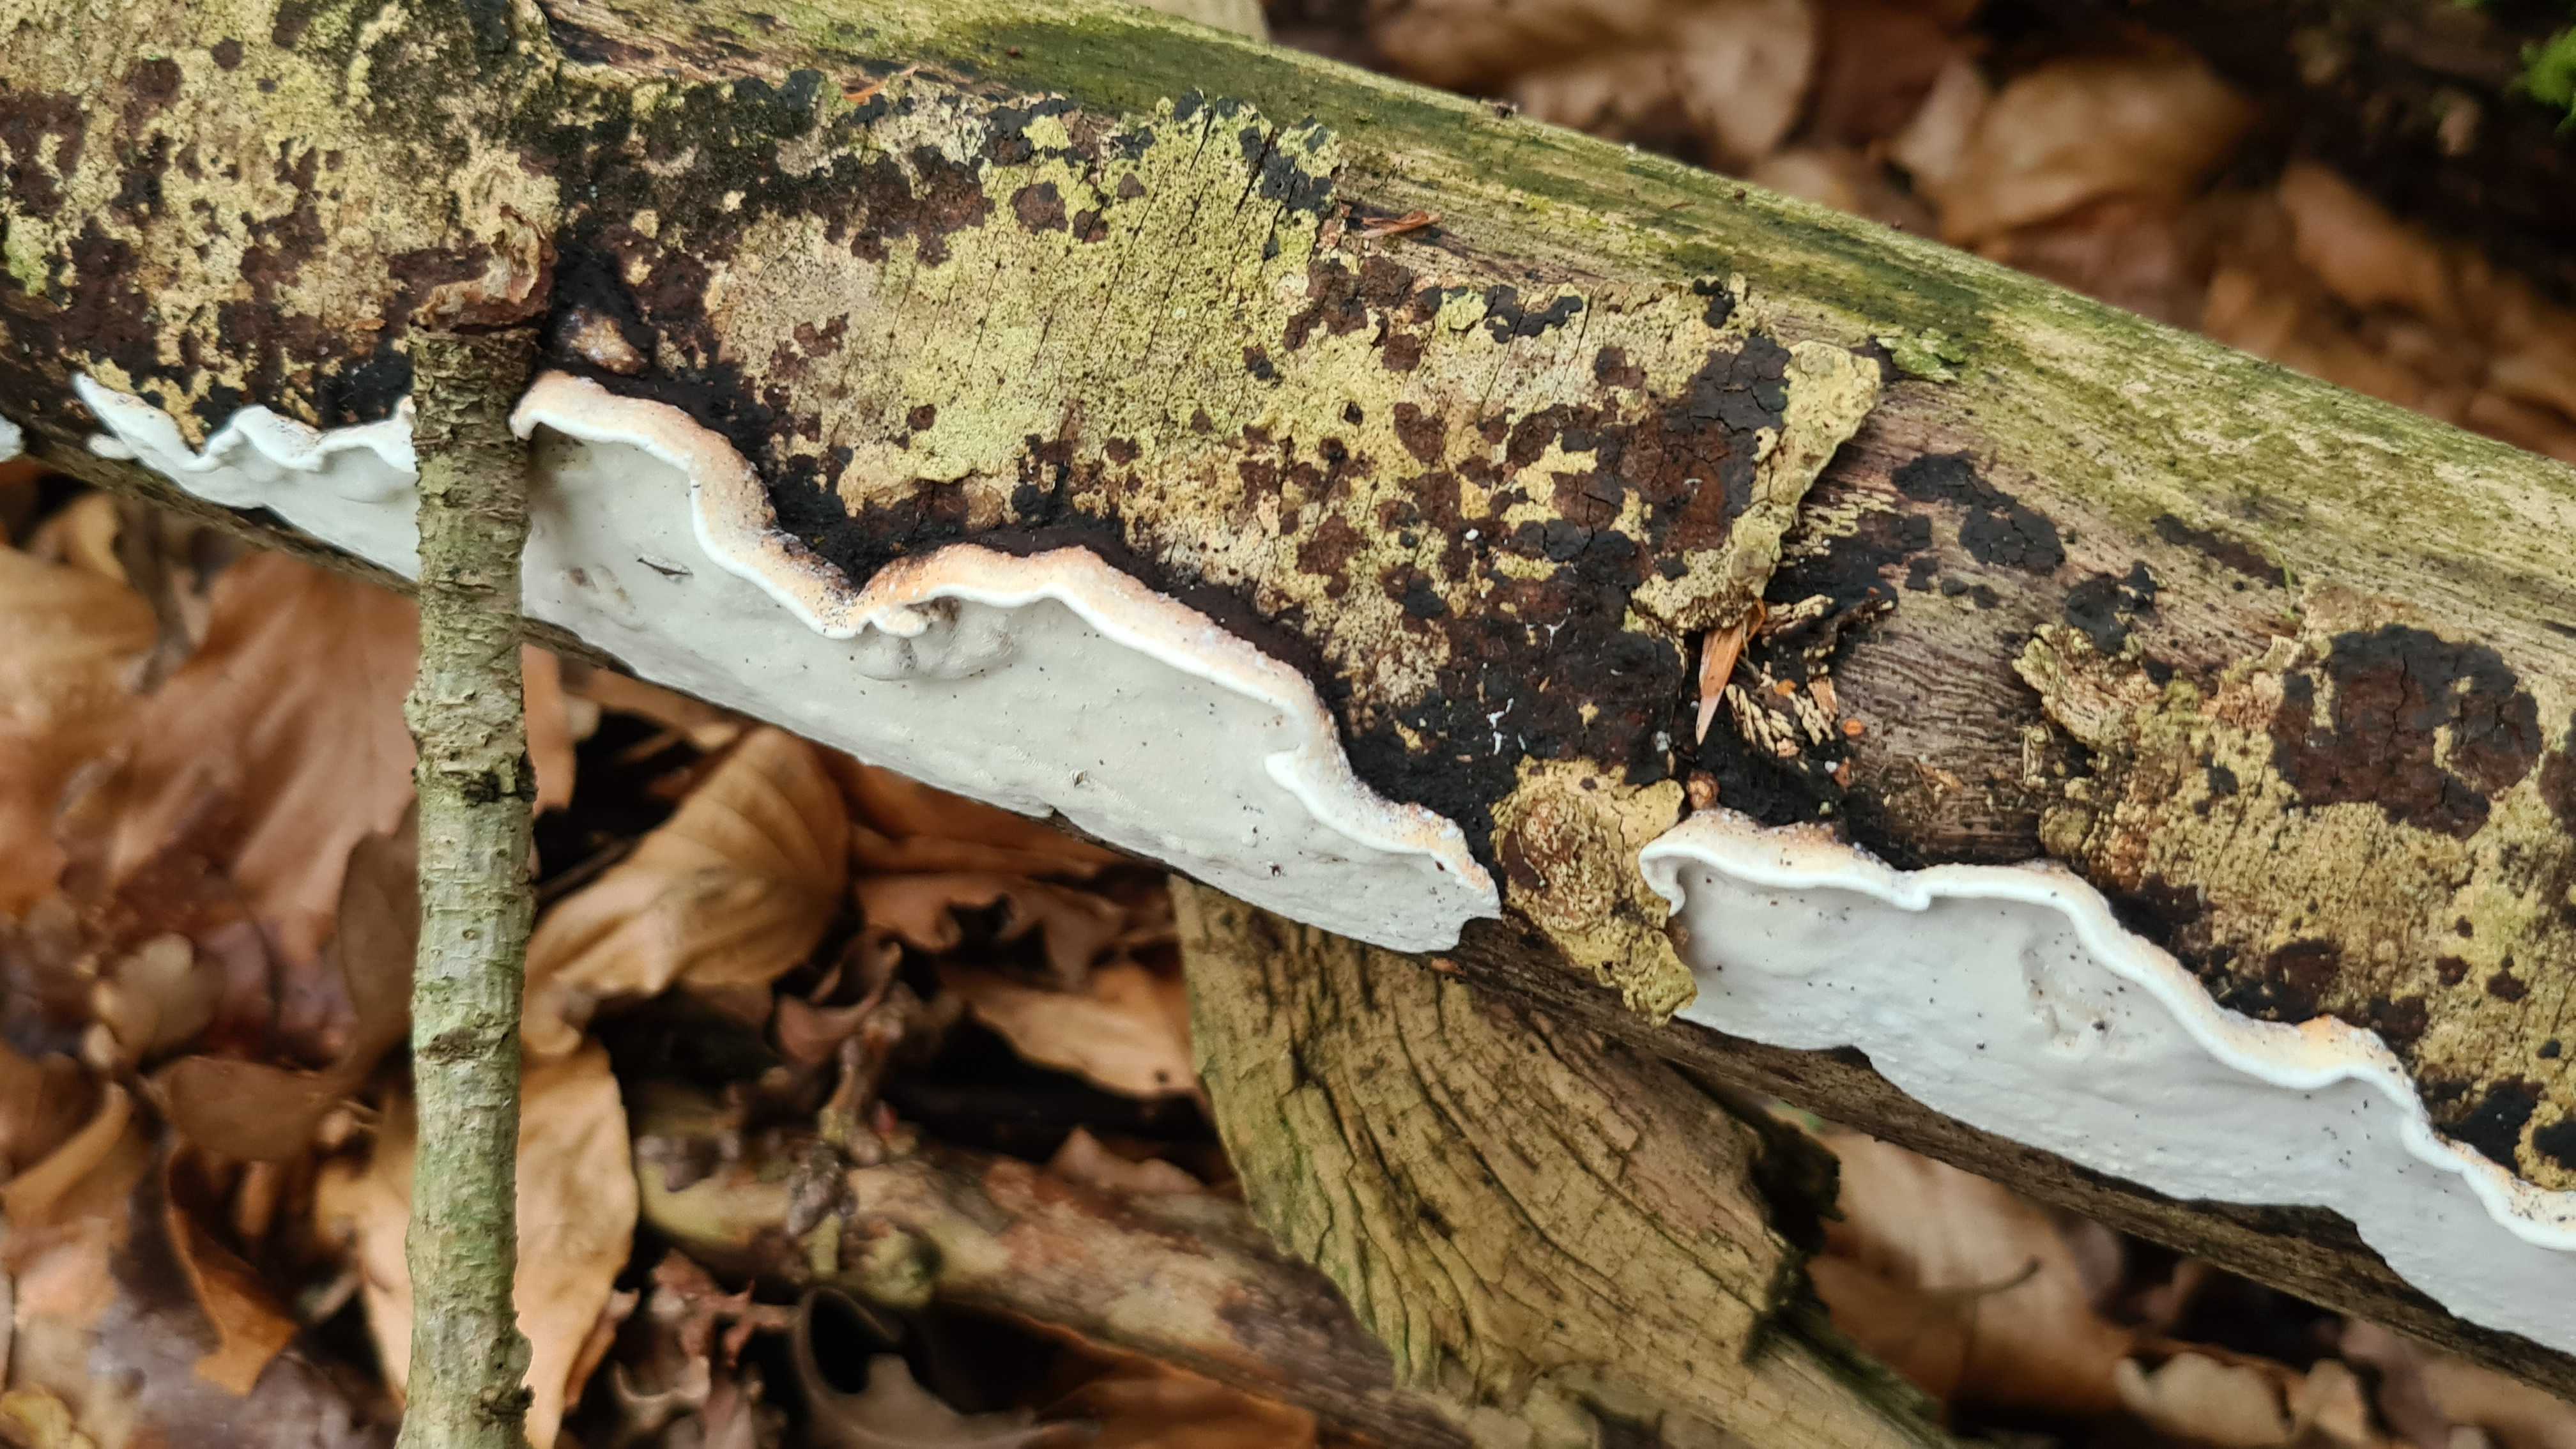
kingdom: Fungi
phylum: Basidiomycota
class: Agaricomycetes
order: Polyporales
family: Incrustoporiaceae
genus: Skeletocutis
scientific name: Skeletocutis nemoralis
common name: stor krystalporesvamp
